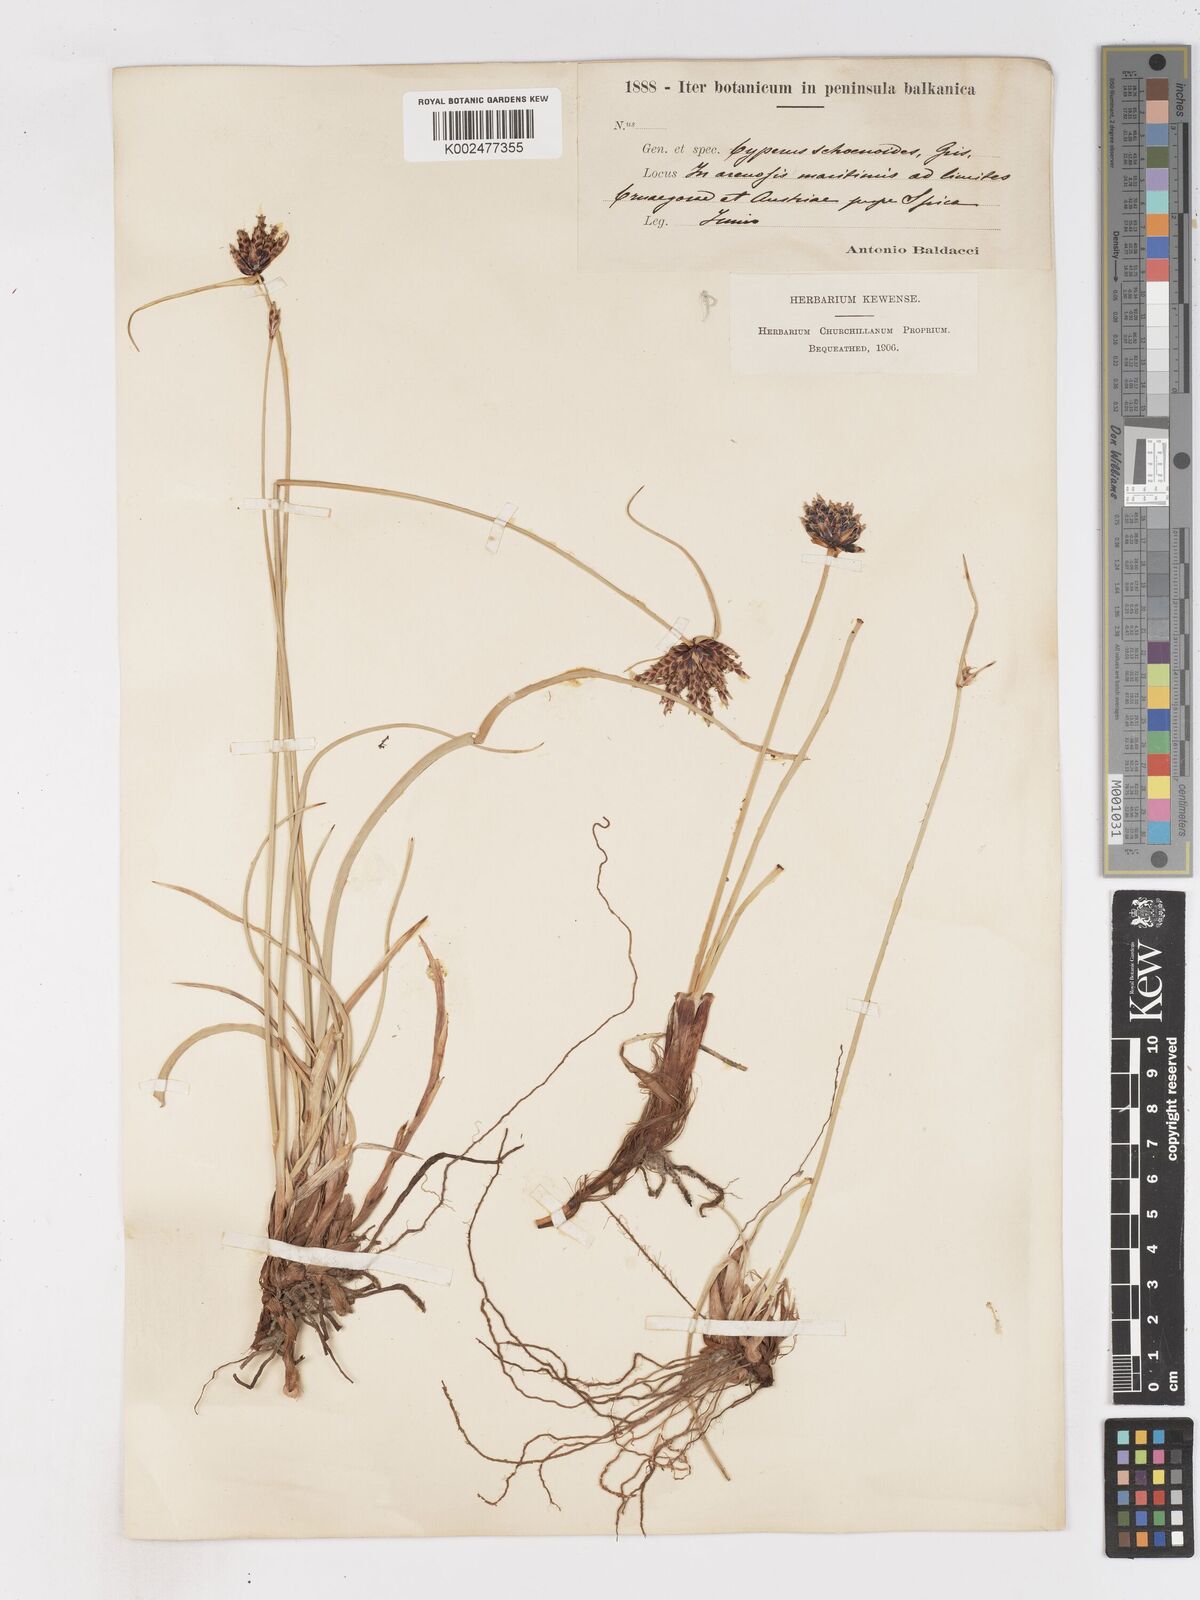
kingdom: Plantae
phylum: Tracheophyta
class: Liliopsida
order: Poales
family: Cyperaceae
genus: Cyperus
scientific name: Cyperus capitatus
